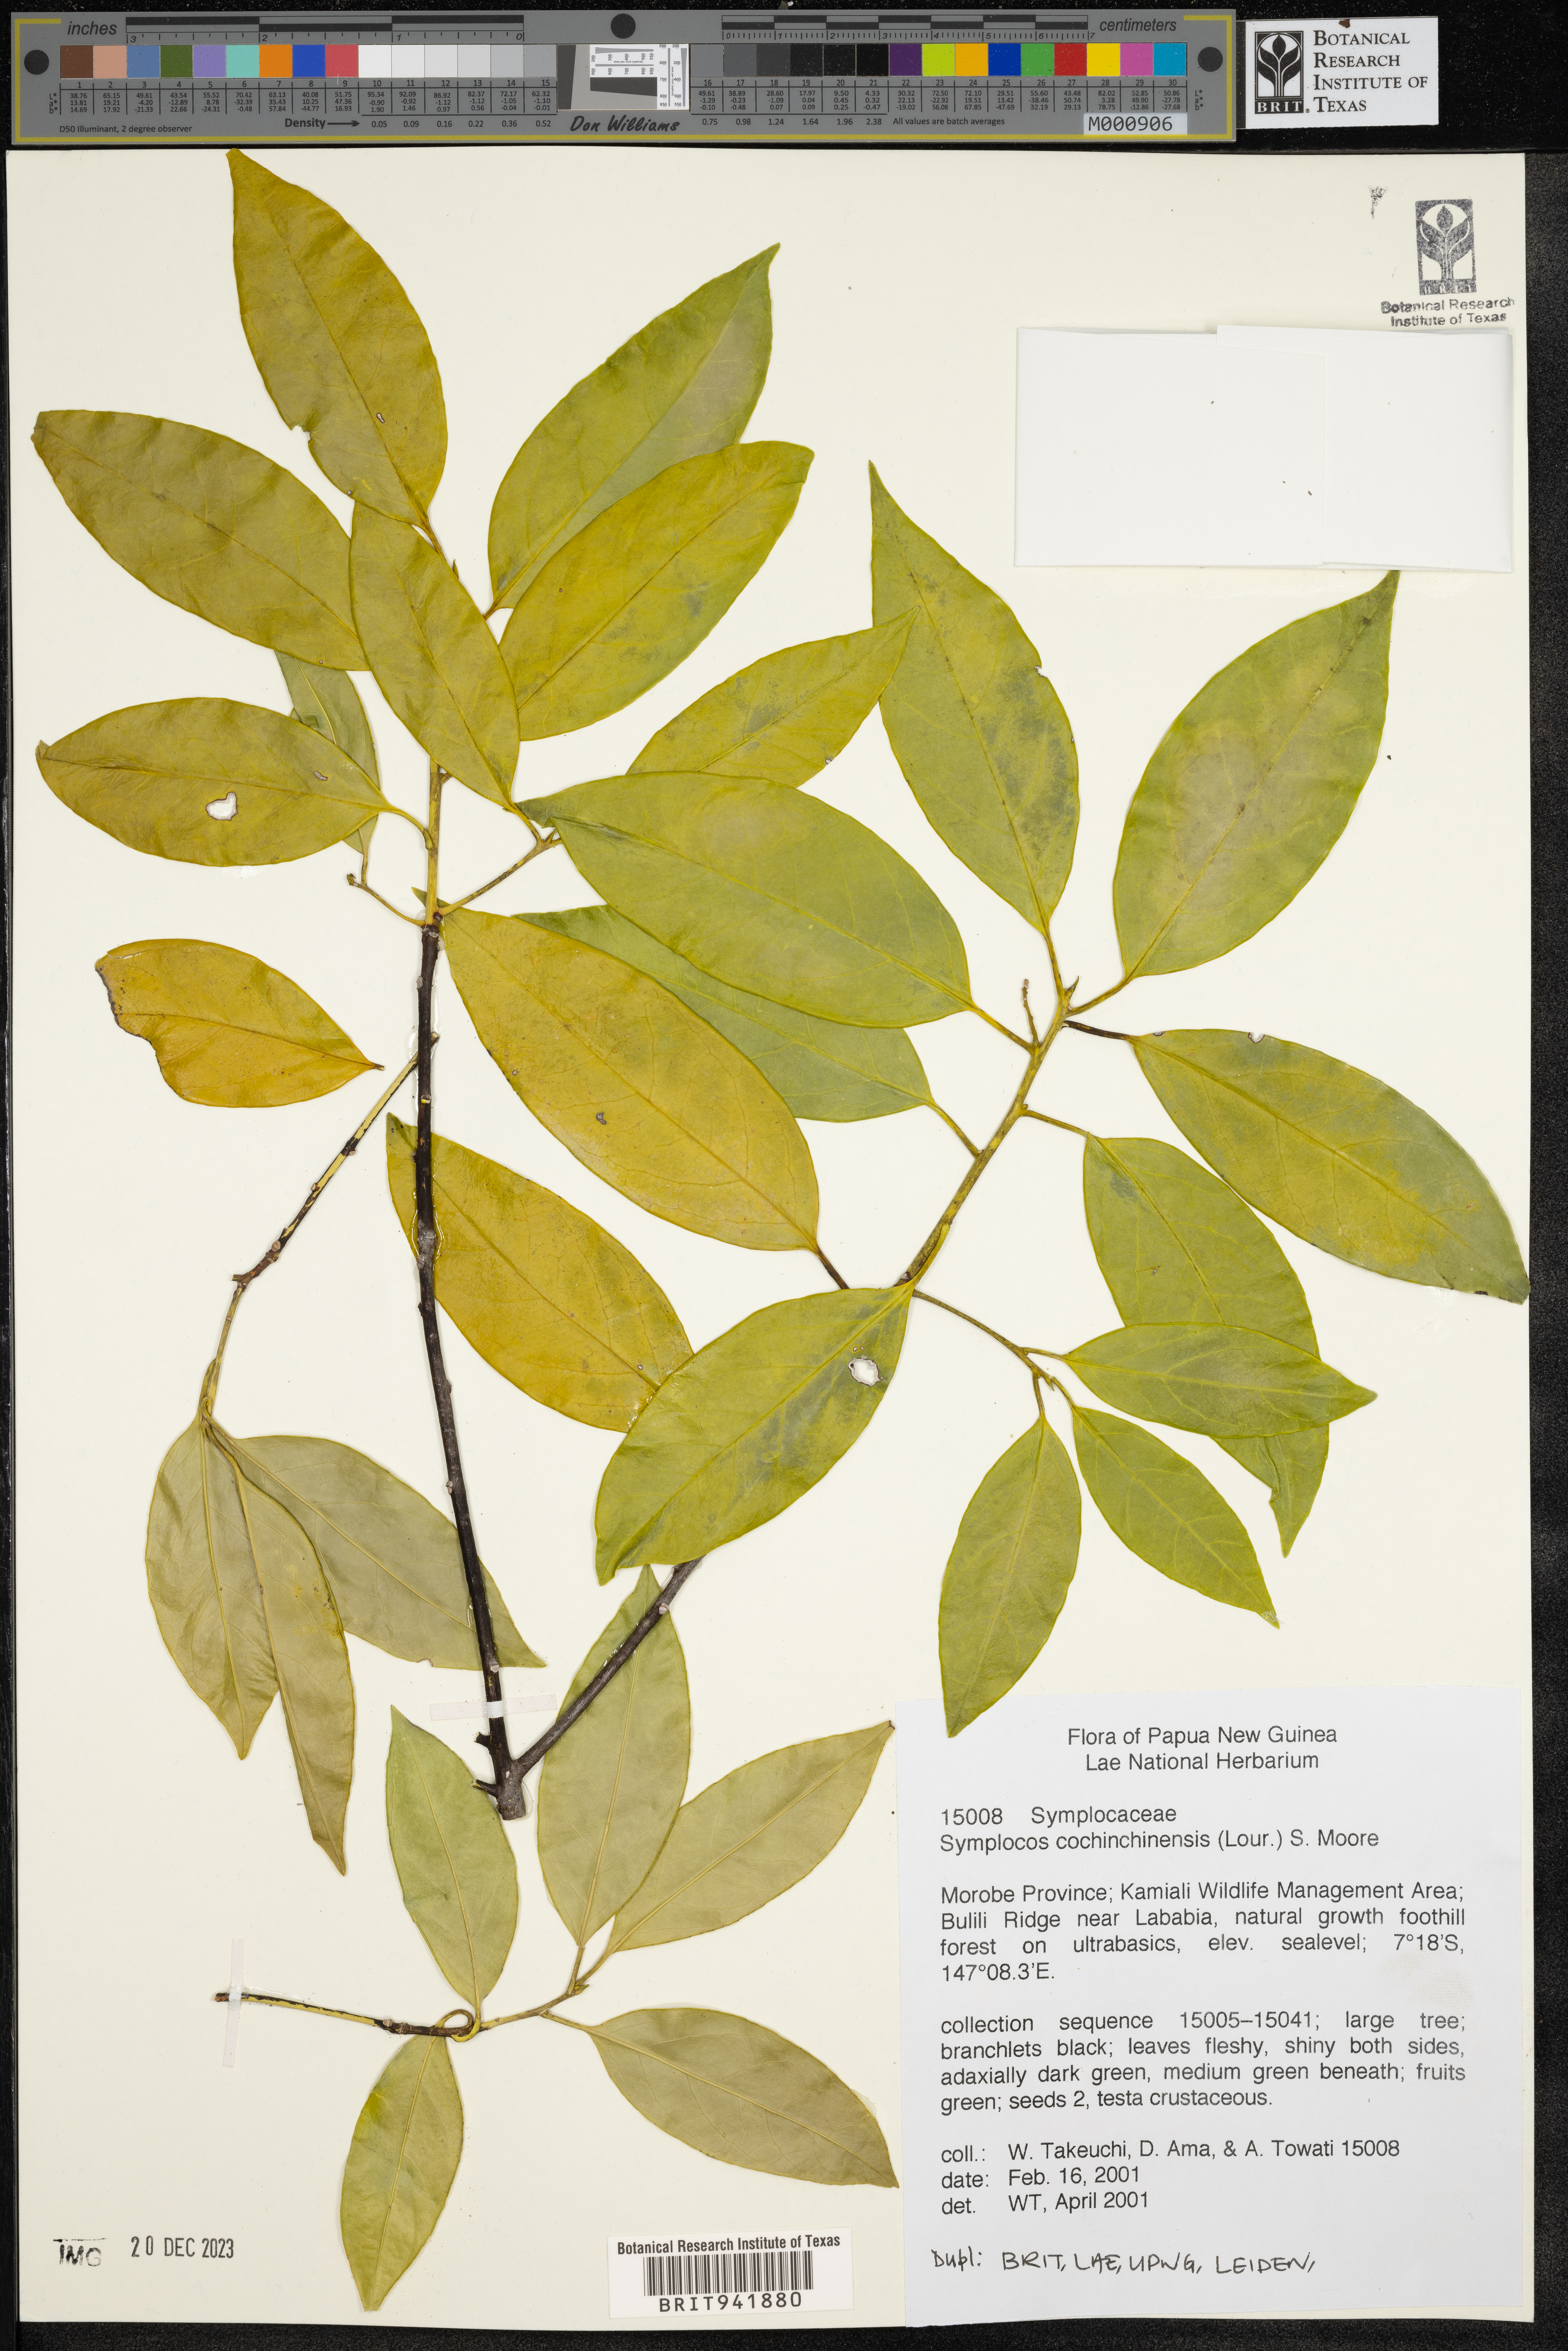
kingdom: Plantae
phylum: Tracheophyta
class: Magnoliopsida
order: Ericales
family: Symplocaceae
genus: Symplocos
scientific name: Symplocos cochinchinensis
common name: Buff hazelwood
